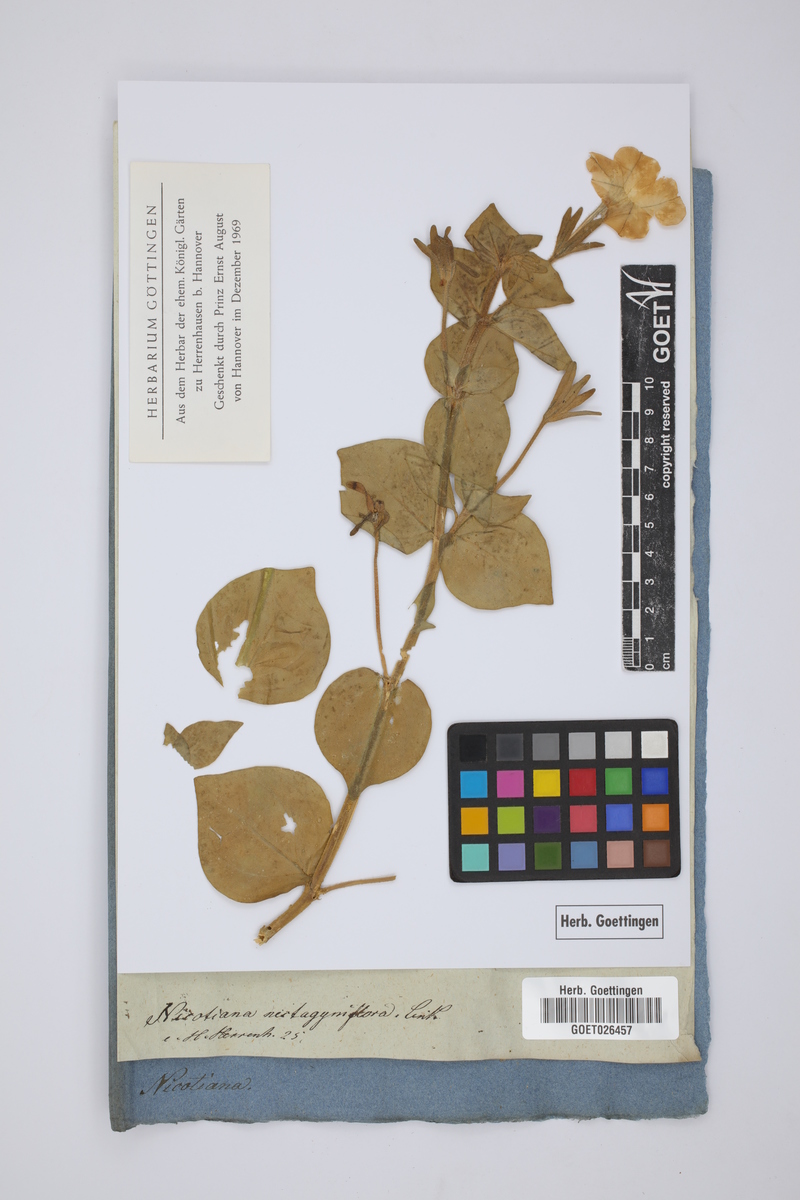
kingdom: Plantae
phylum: Tracheophyta
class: Magnoliopsida
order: Solanales
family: Solanaceae
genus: Petunia
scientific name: Petunia axillaris
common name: Large white petunia
